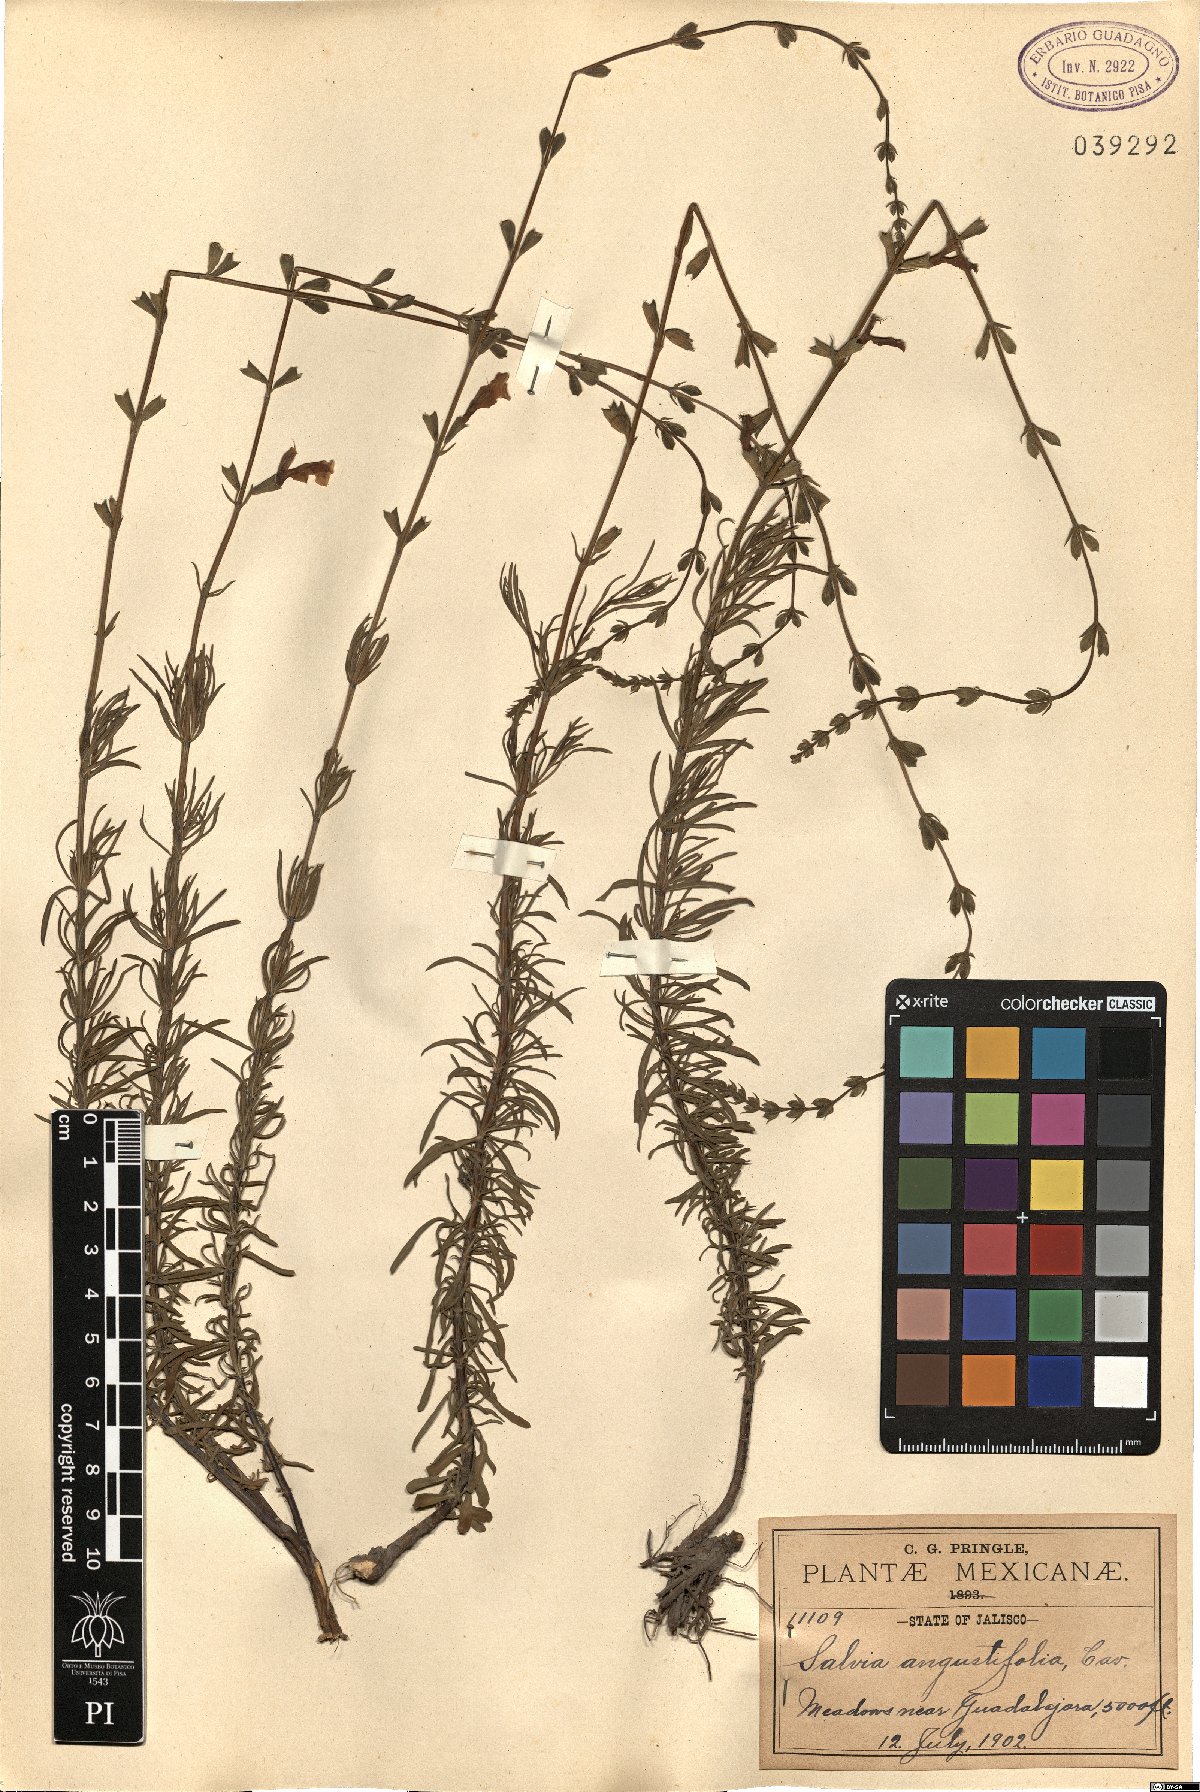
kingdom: Plantae
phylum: Tracheophyta
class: Magnoliopsida
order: Lamiales
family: Lamiaceae
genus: Salvia
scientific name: Salvia reptans
